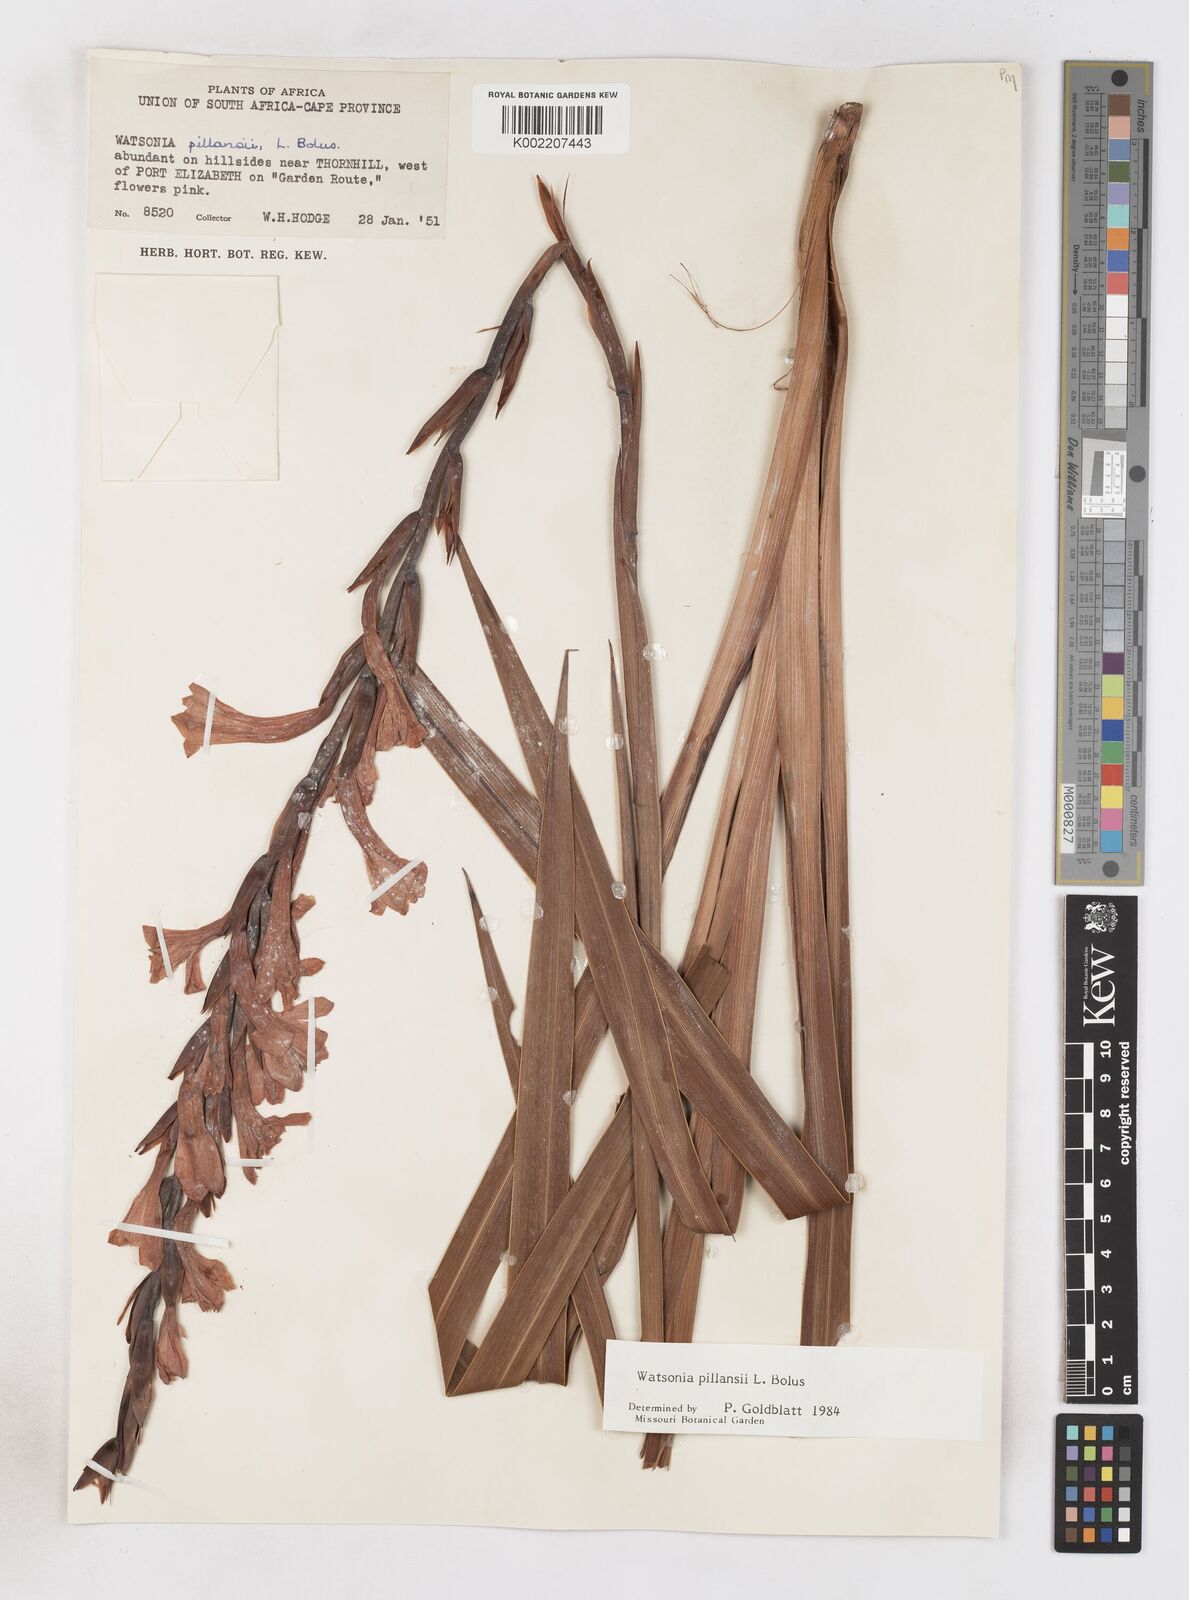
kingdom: Plantae
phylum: Tracheophyta
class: Liliopsida
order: Asparagales
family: Iridaceae
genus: Watsonia
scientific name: Watsonia pillansii
